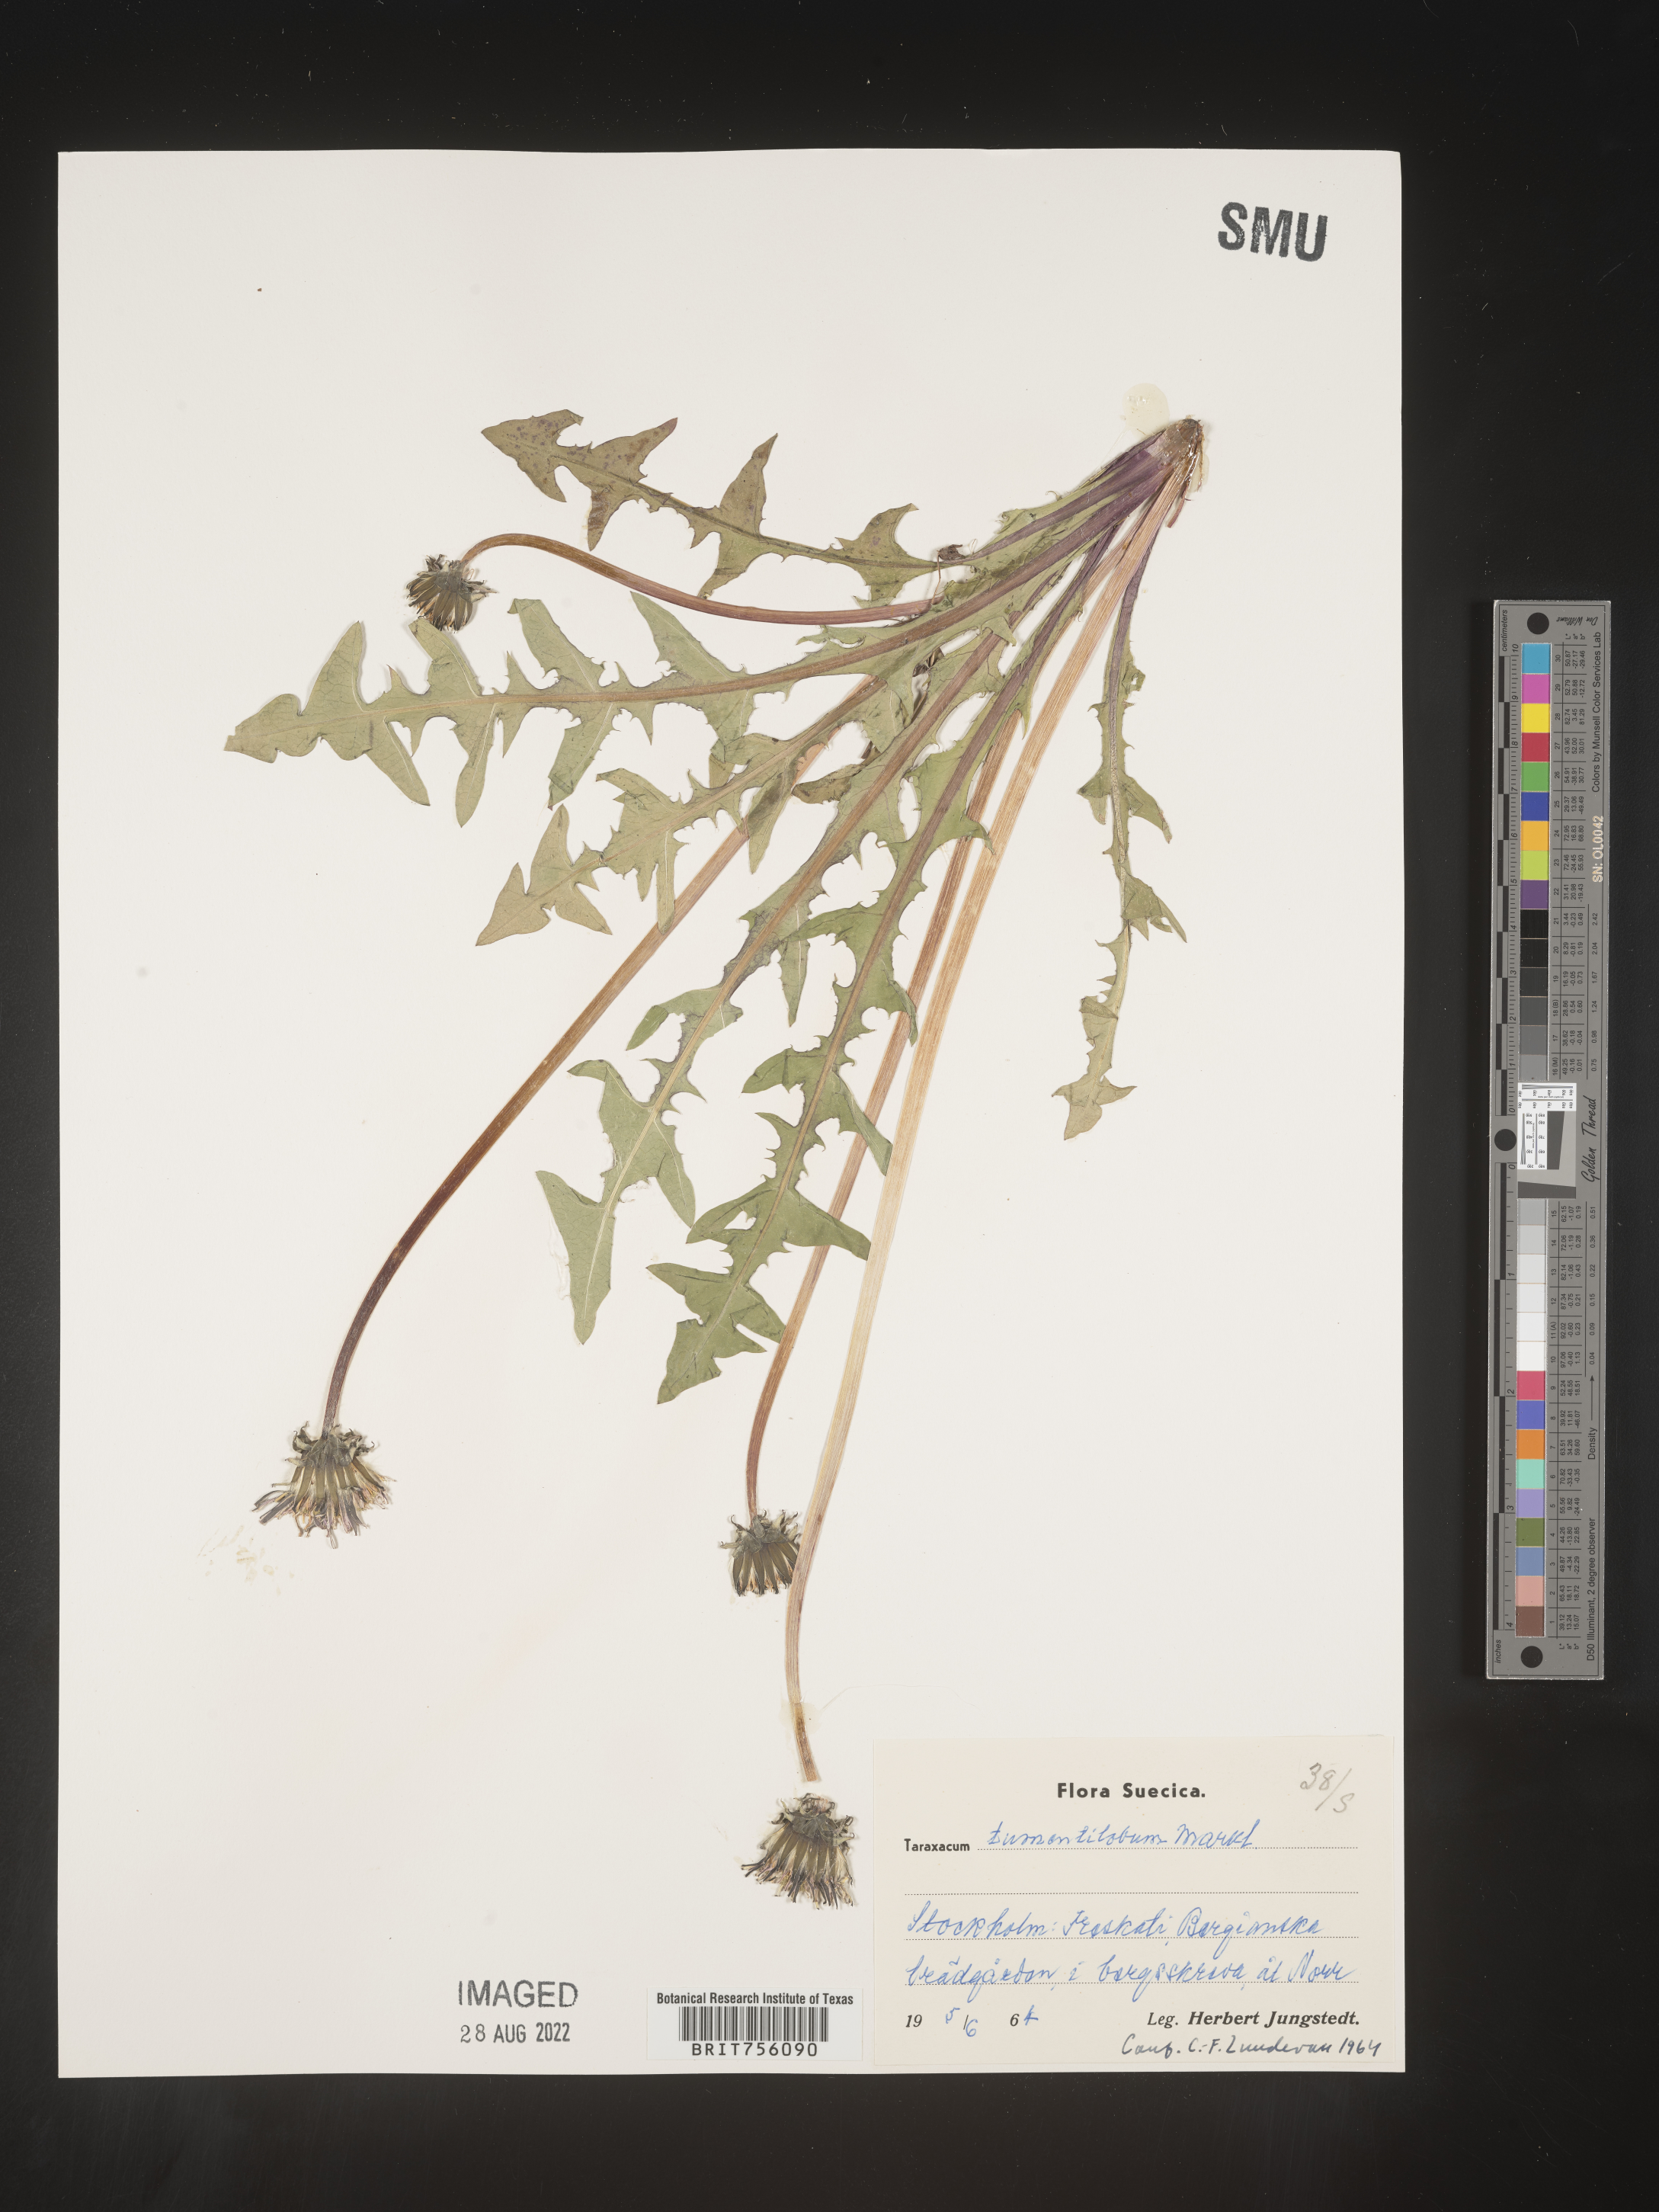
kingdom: Plantae
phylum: Tracheophyta
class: Magnoliopsida
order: Asterales
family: Asteraceae
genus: Taraxacum
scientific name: Taraxacum
